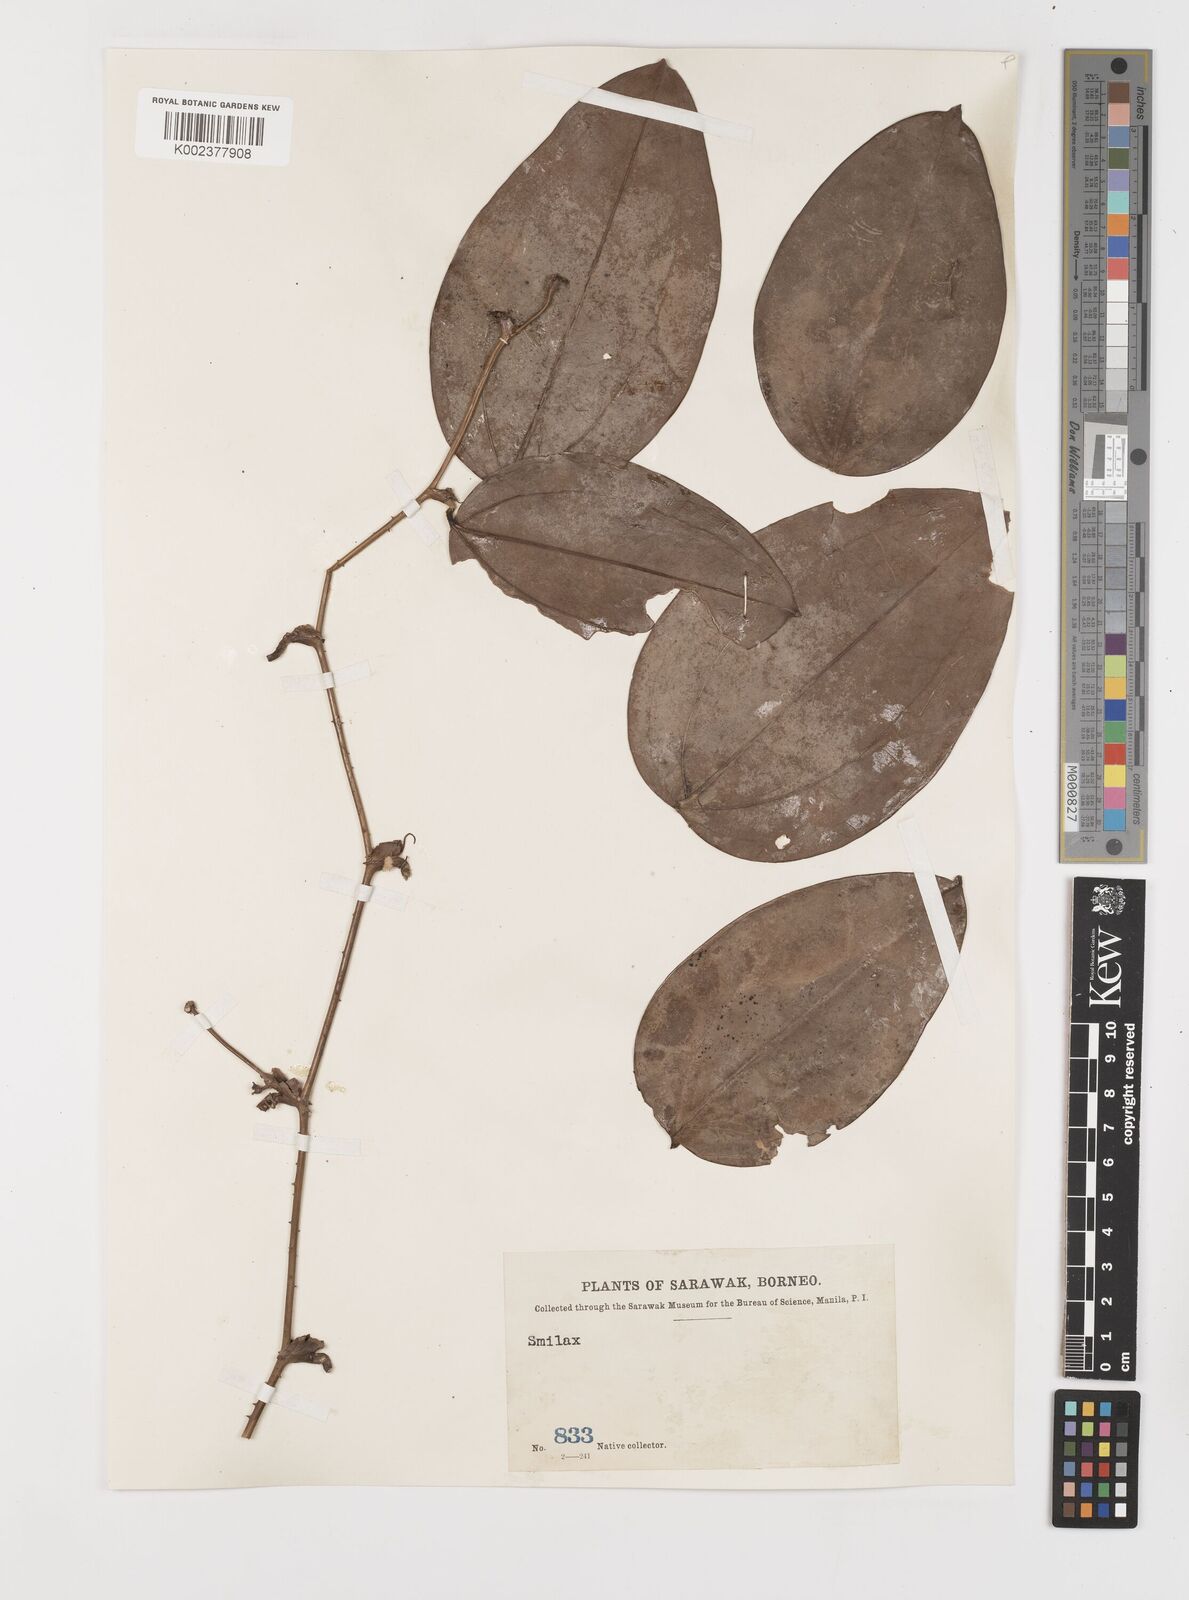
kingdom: Plantae
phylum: Tracheophyta
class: Liliopsida
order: Liliales
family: Smilacaceae
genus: Smilax
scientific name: Smilax
